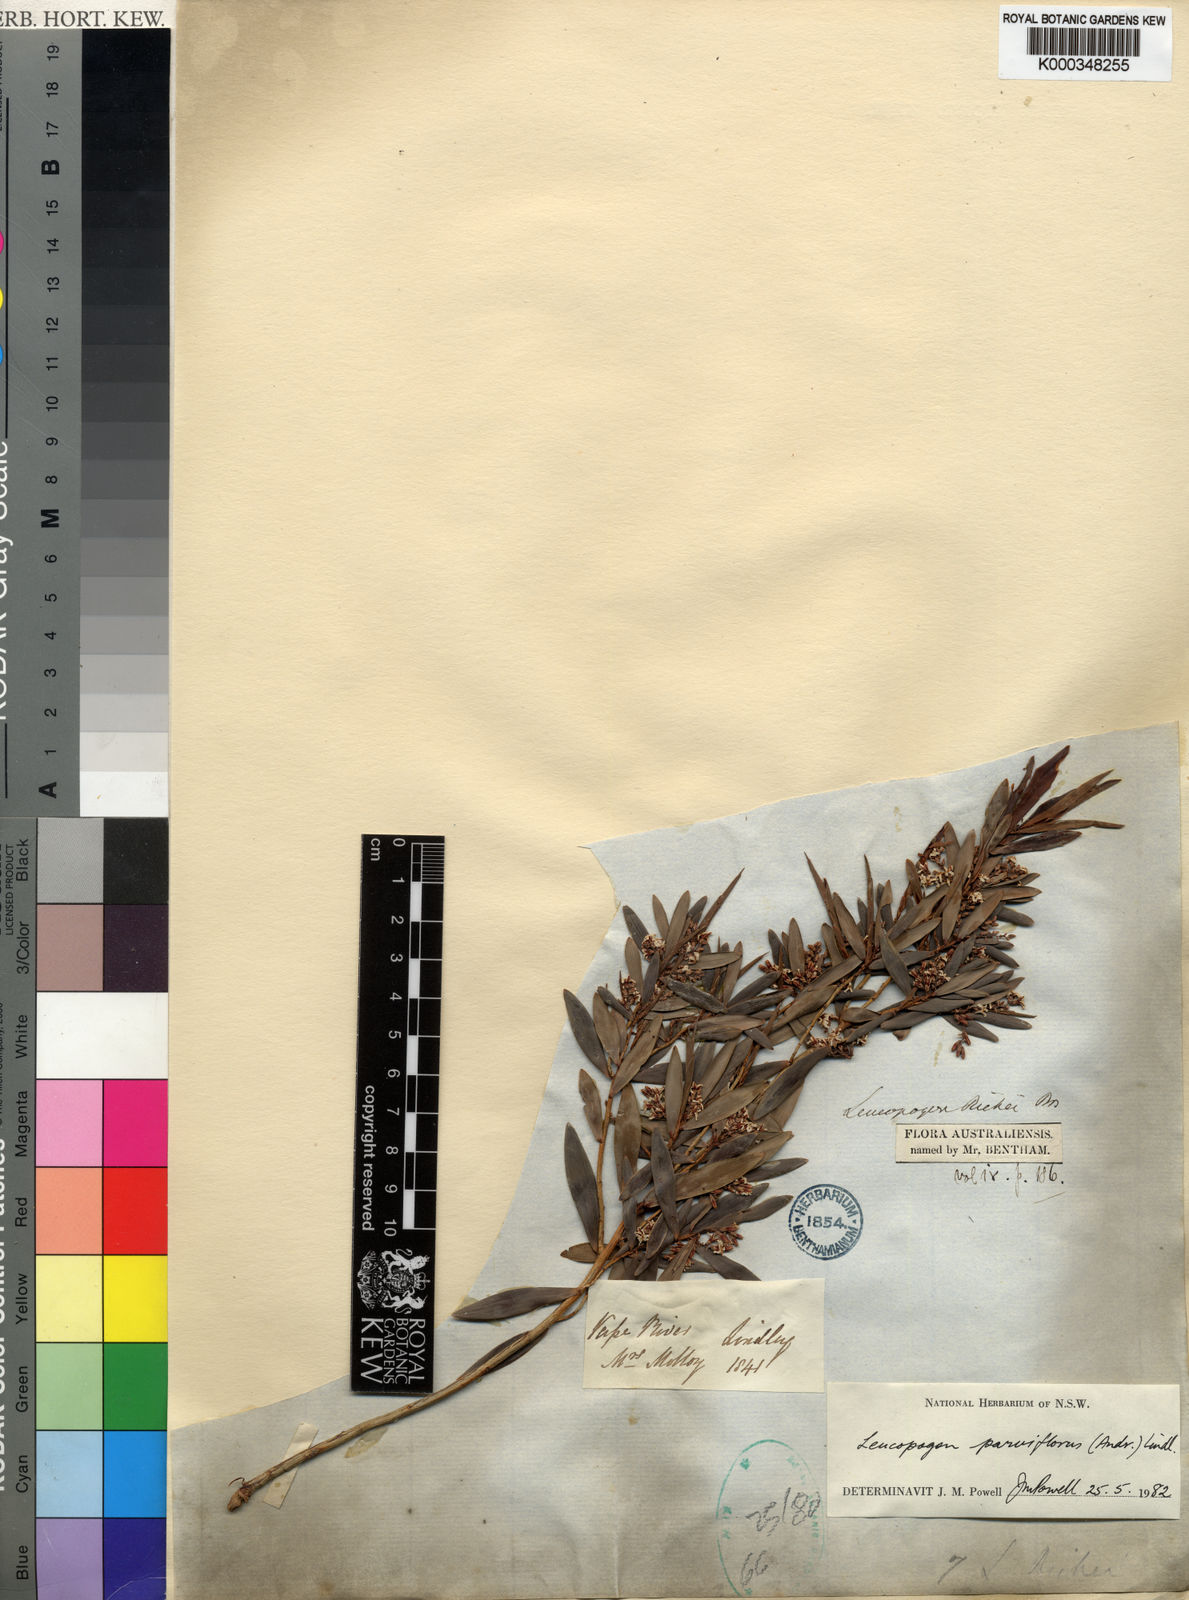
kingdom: Plantae
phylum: Tracheophyta
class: Magnoliopsida
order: Ericales
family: Ericaceae
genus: Leptecophylla
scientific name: Leptecophylla parvifolia
